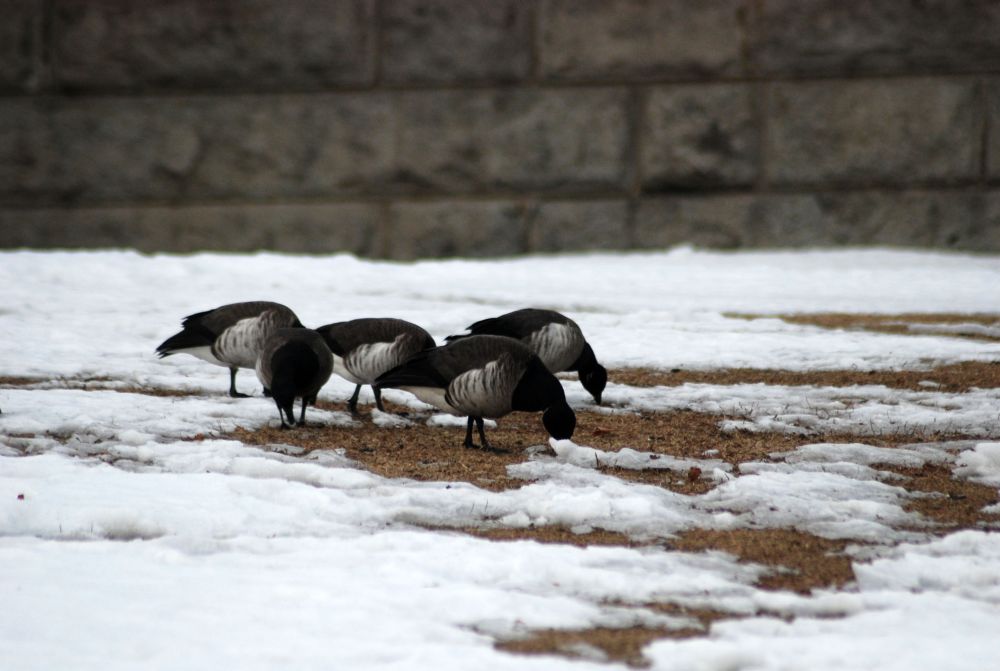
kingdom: Animalia
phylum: Chordata
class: Aves
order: Anseriformes
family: Anatidae
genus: Branta
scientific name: Branta bernicla
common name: Brant goose
